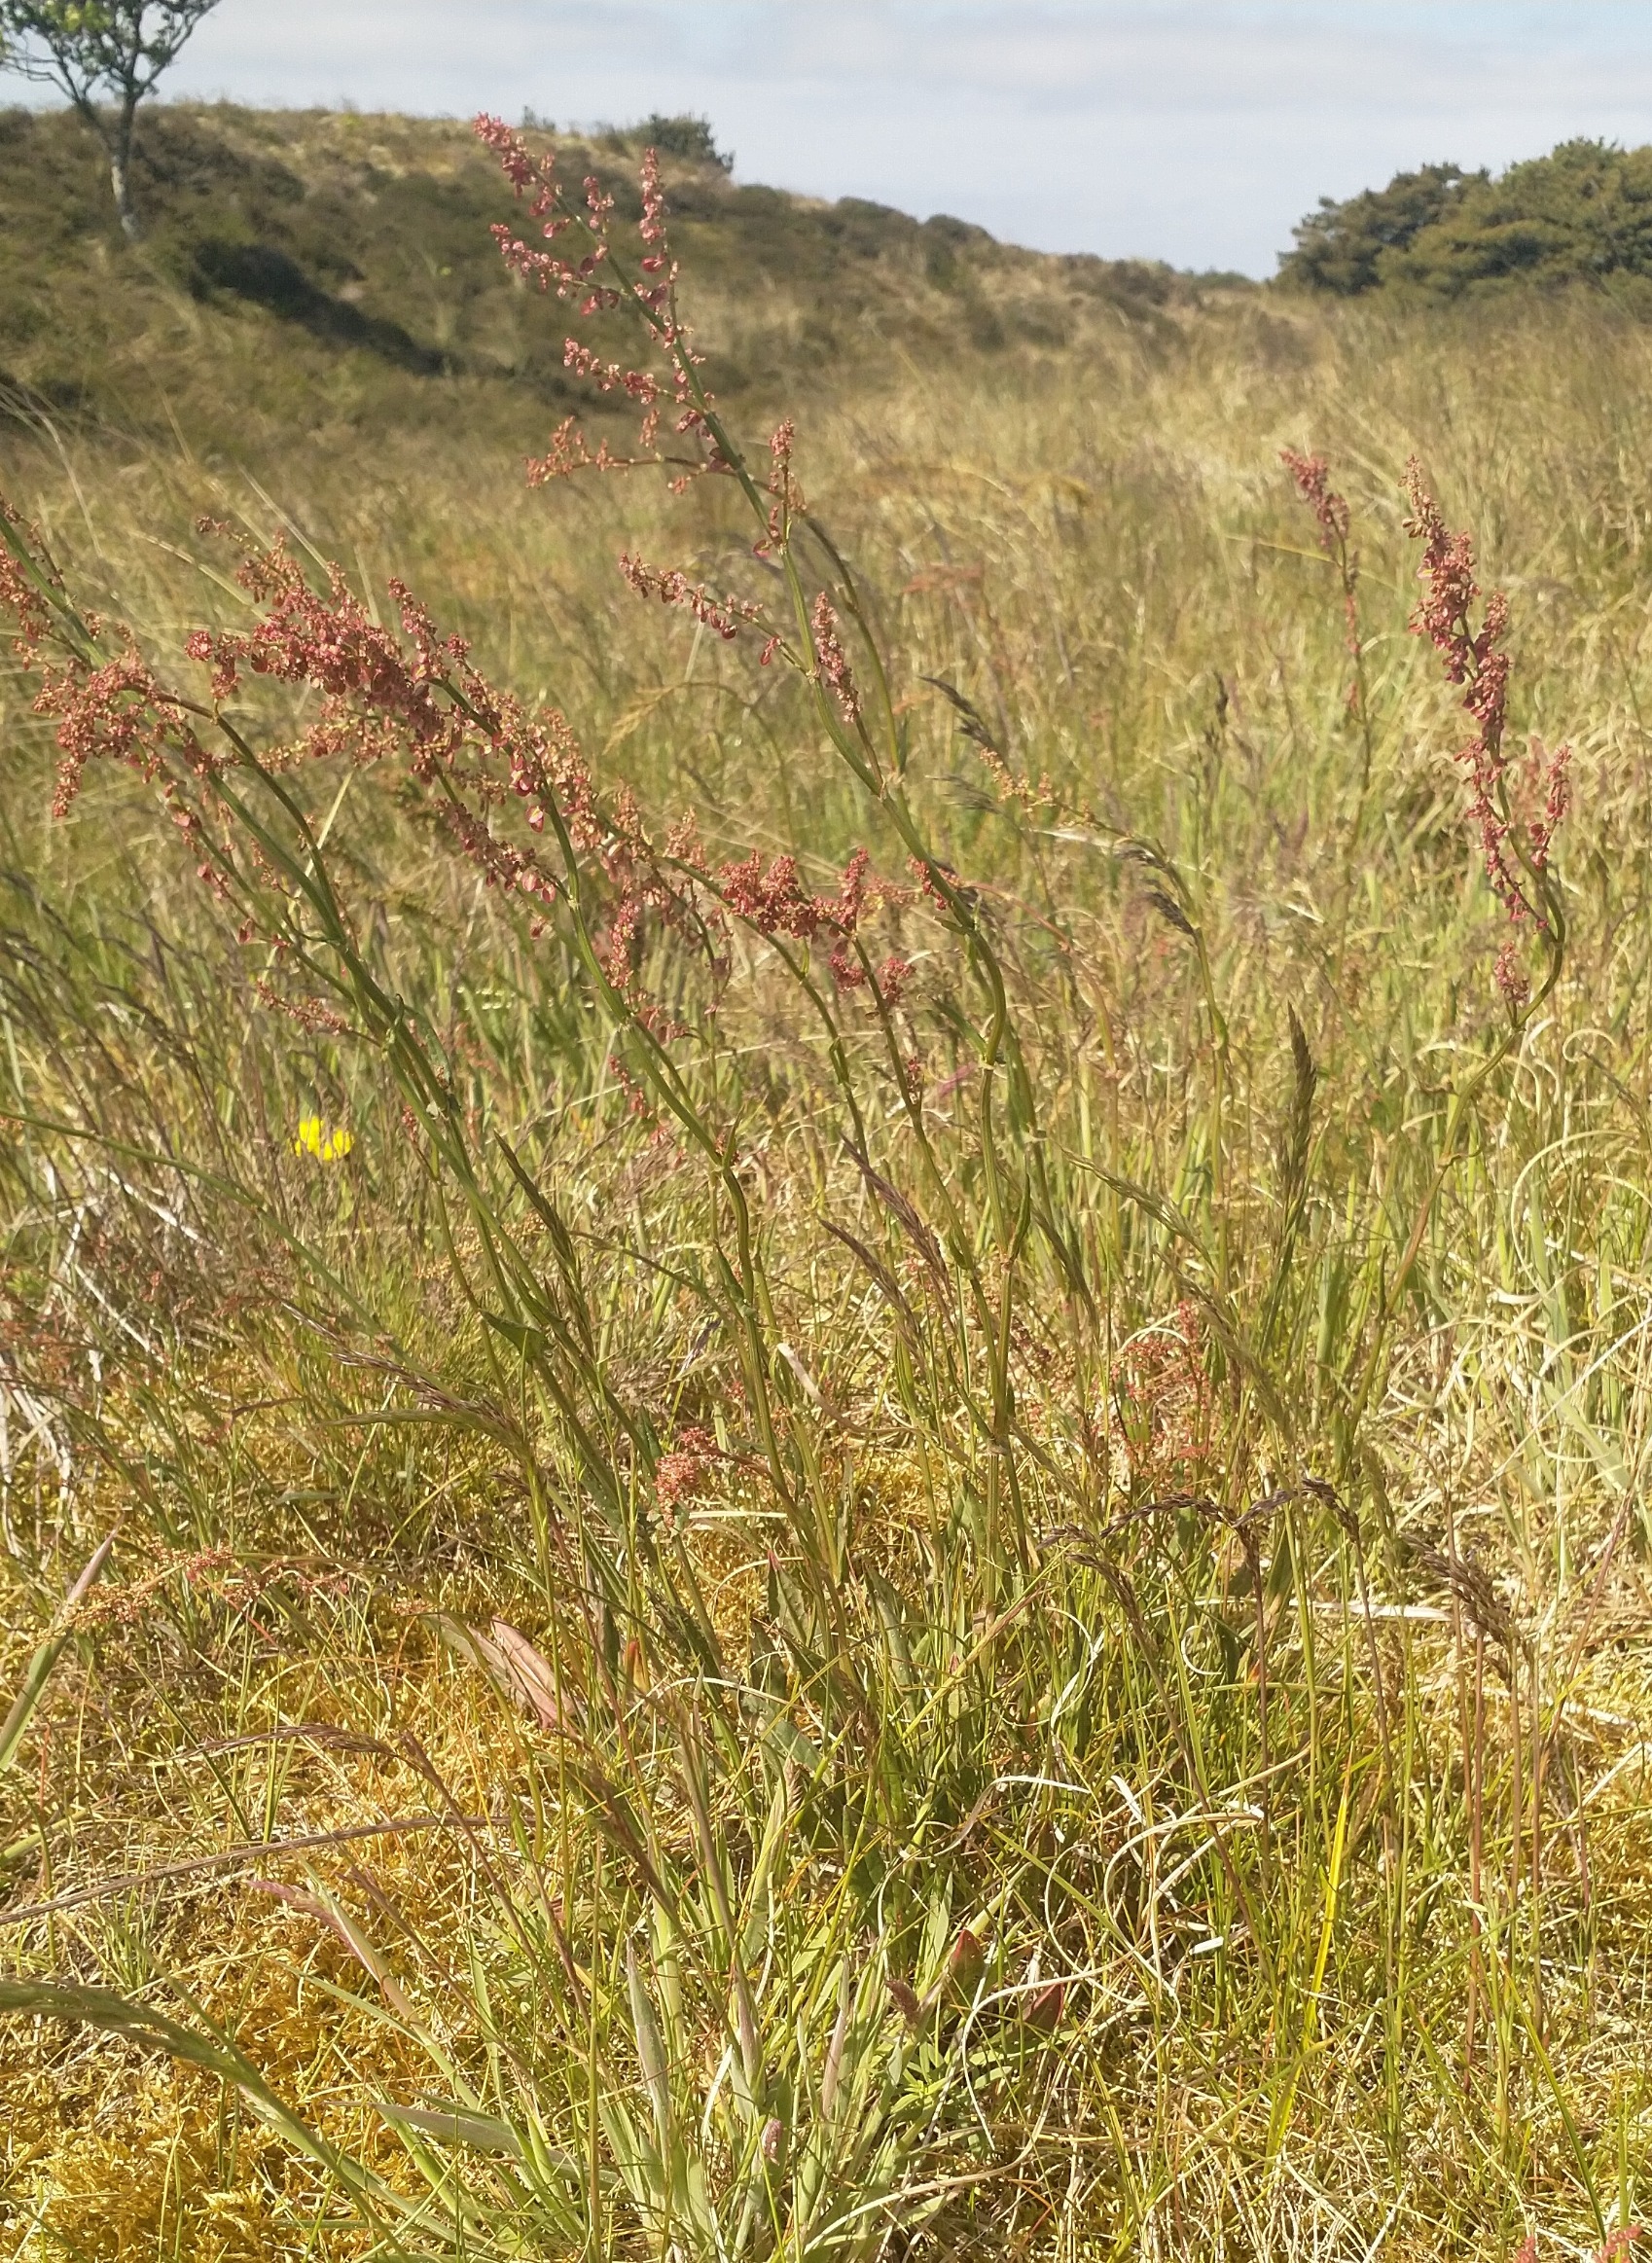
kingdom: Plantae
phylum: Tracheophyta
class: Magnoliopsida
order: Caryophyllales
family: Polygonaceae
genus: Rumex
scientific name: Rumex acetosa
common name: Almindelig syre
